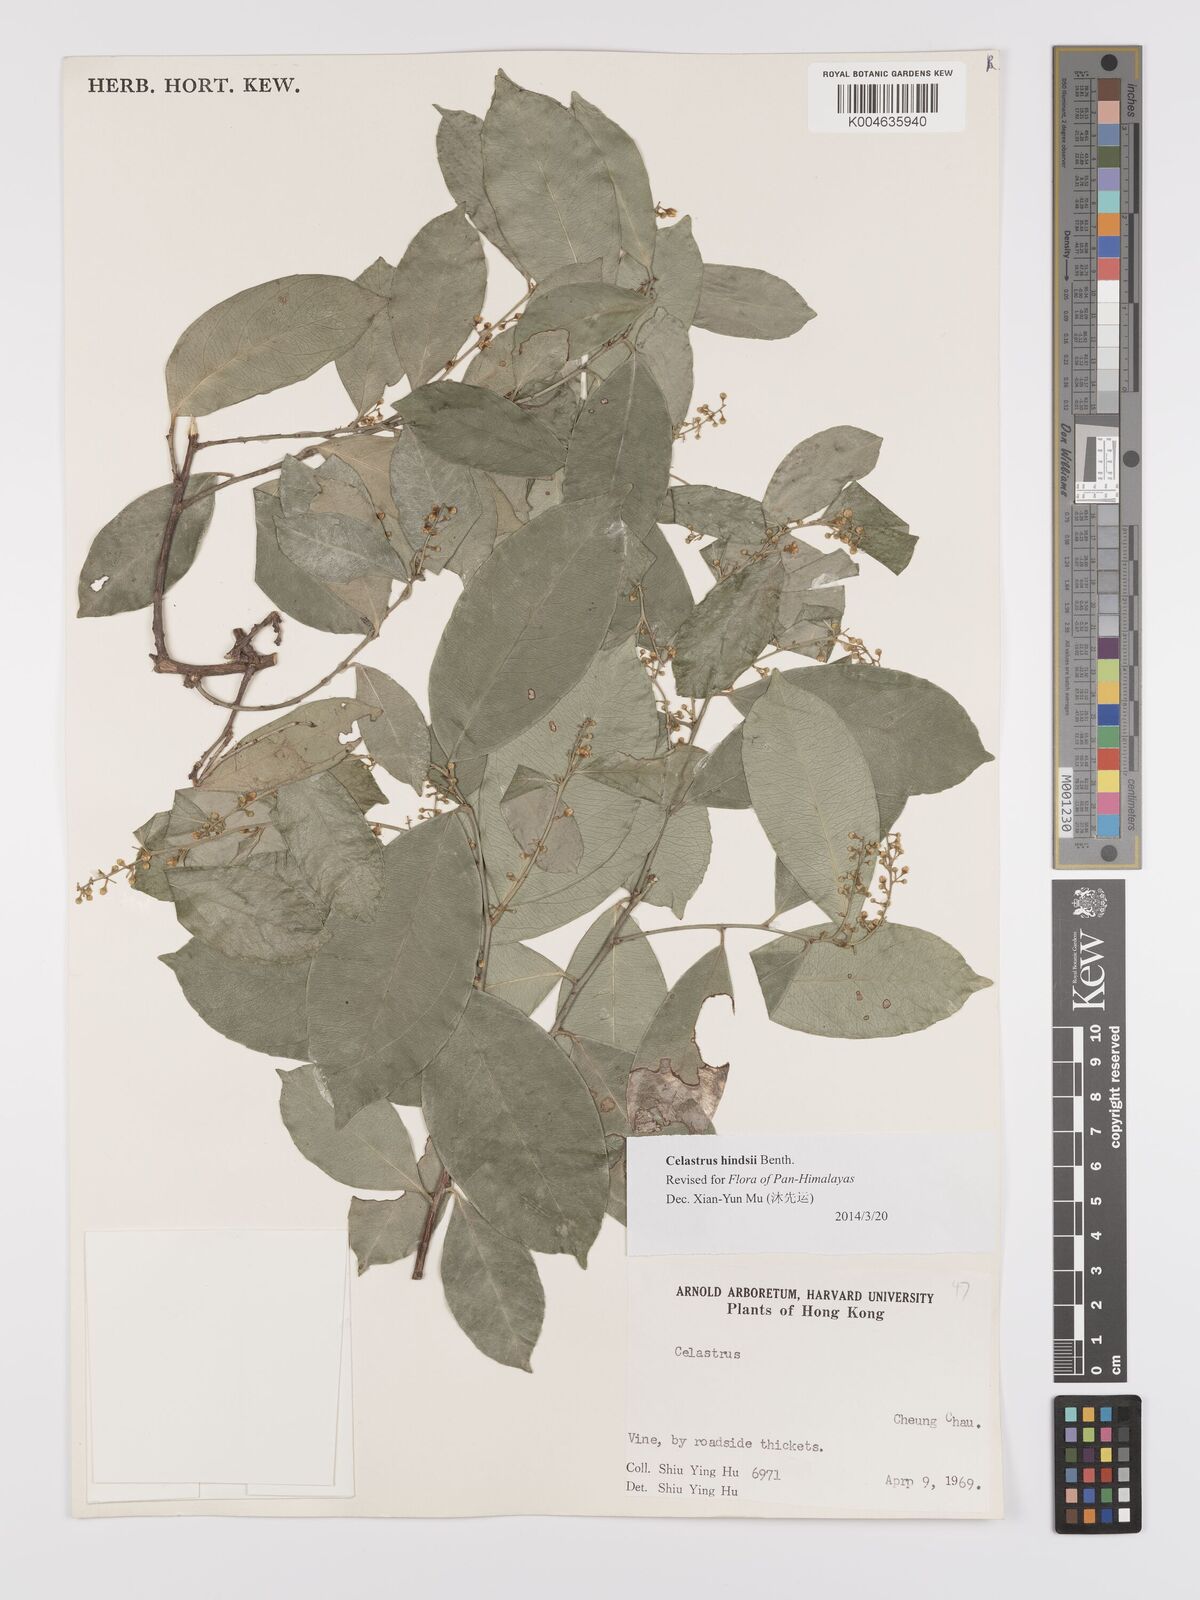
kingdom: Plantae
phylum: Tracheophyta
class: Magnoliopsida
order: Celastrales
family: Celastraceae
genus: Celastrus
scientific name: Celastrus hindsii
